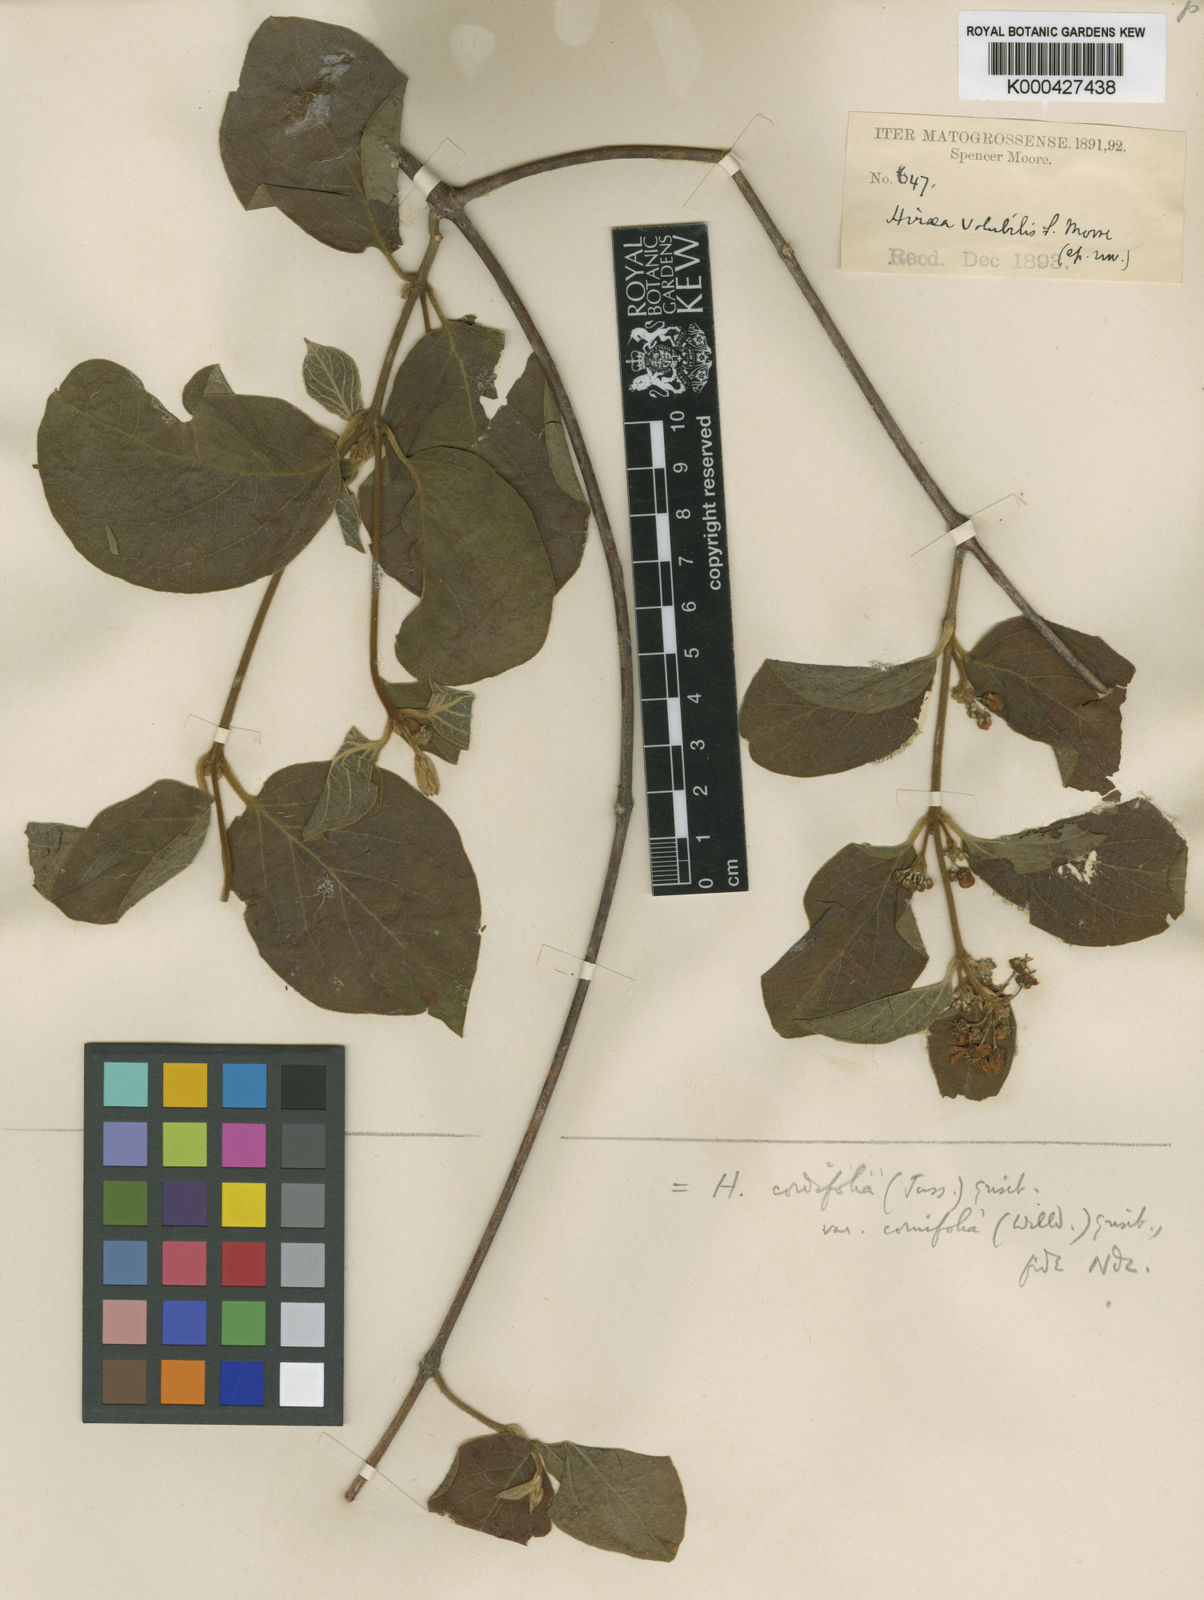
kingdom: Plantae
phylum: Tracheophyta
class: Magnoliopsida
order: Malpighiales
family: Malpighiaceae
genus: Mascagnia
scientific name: Mascagnia cordifolia
